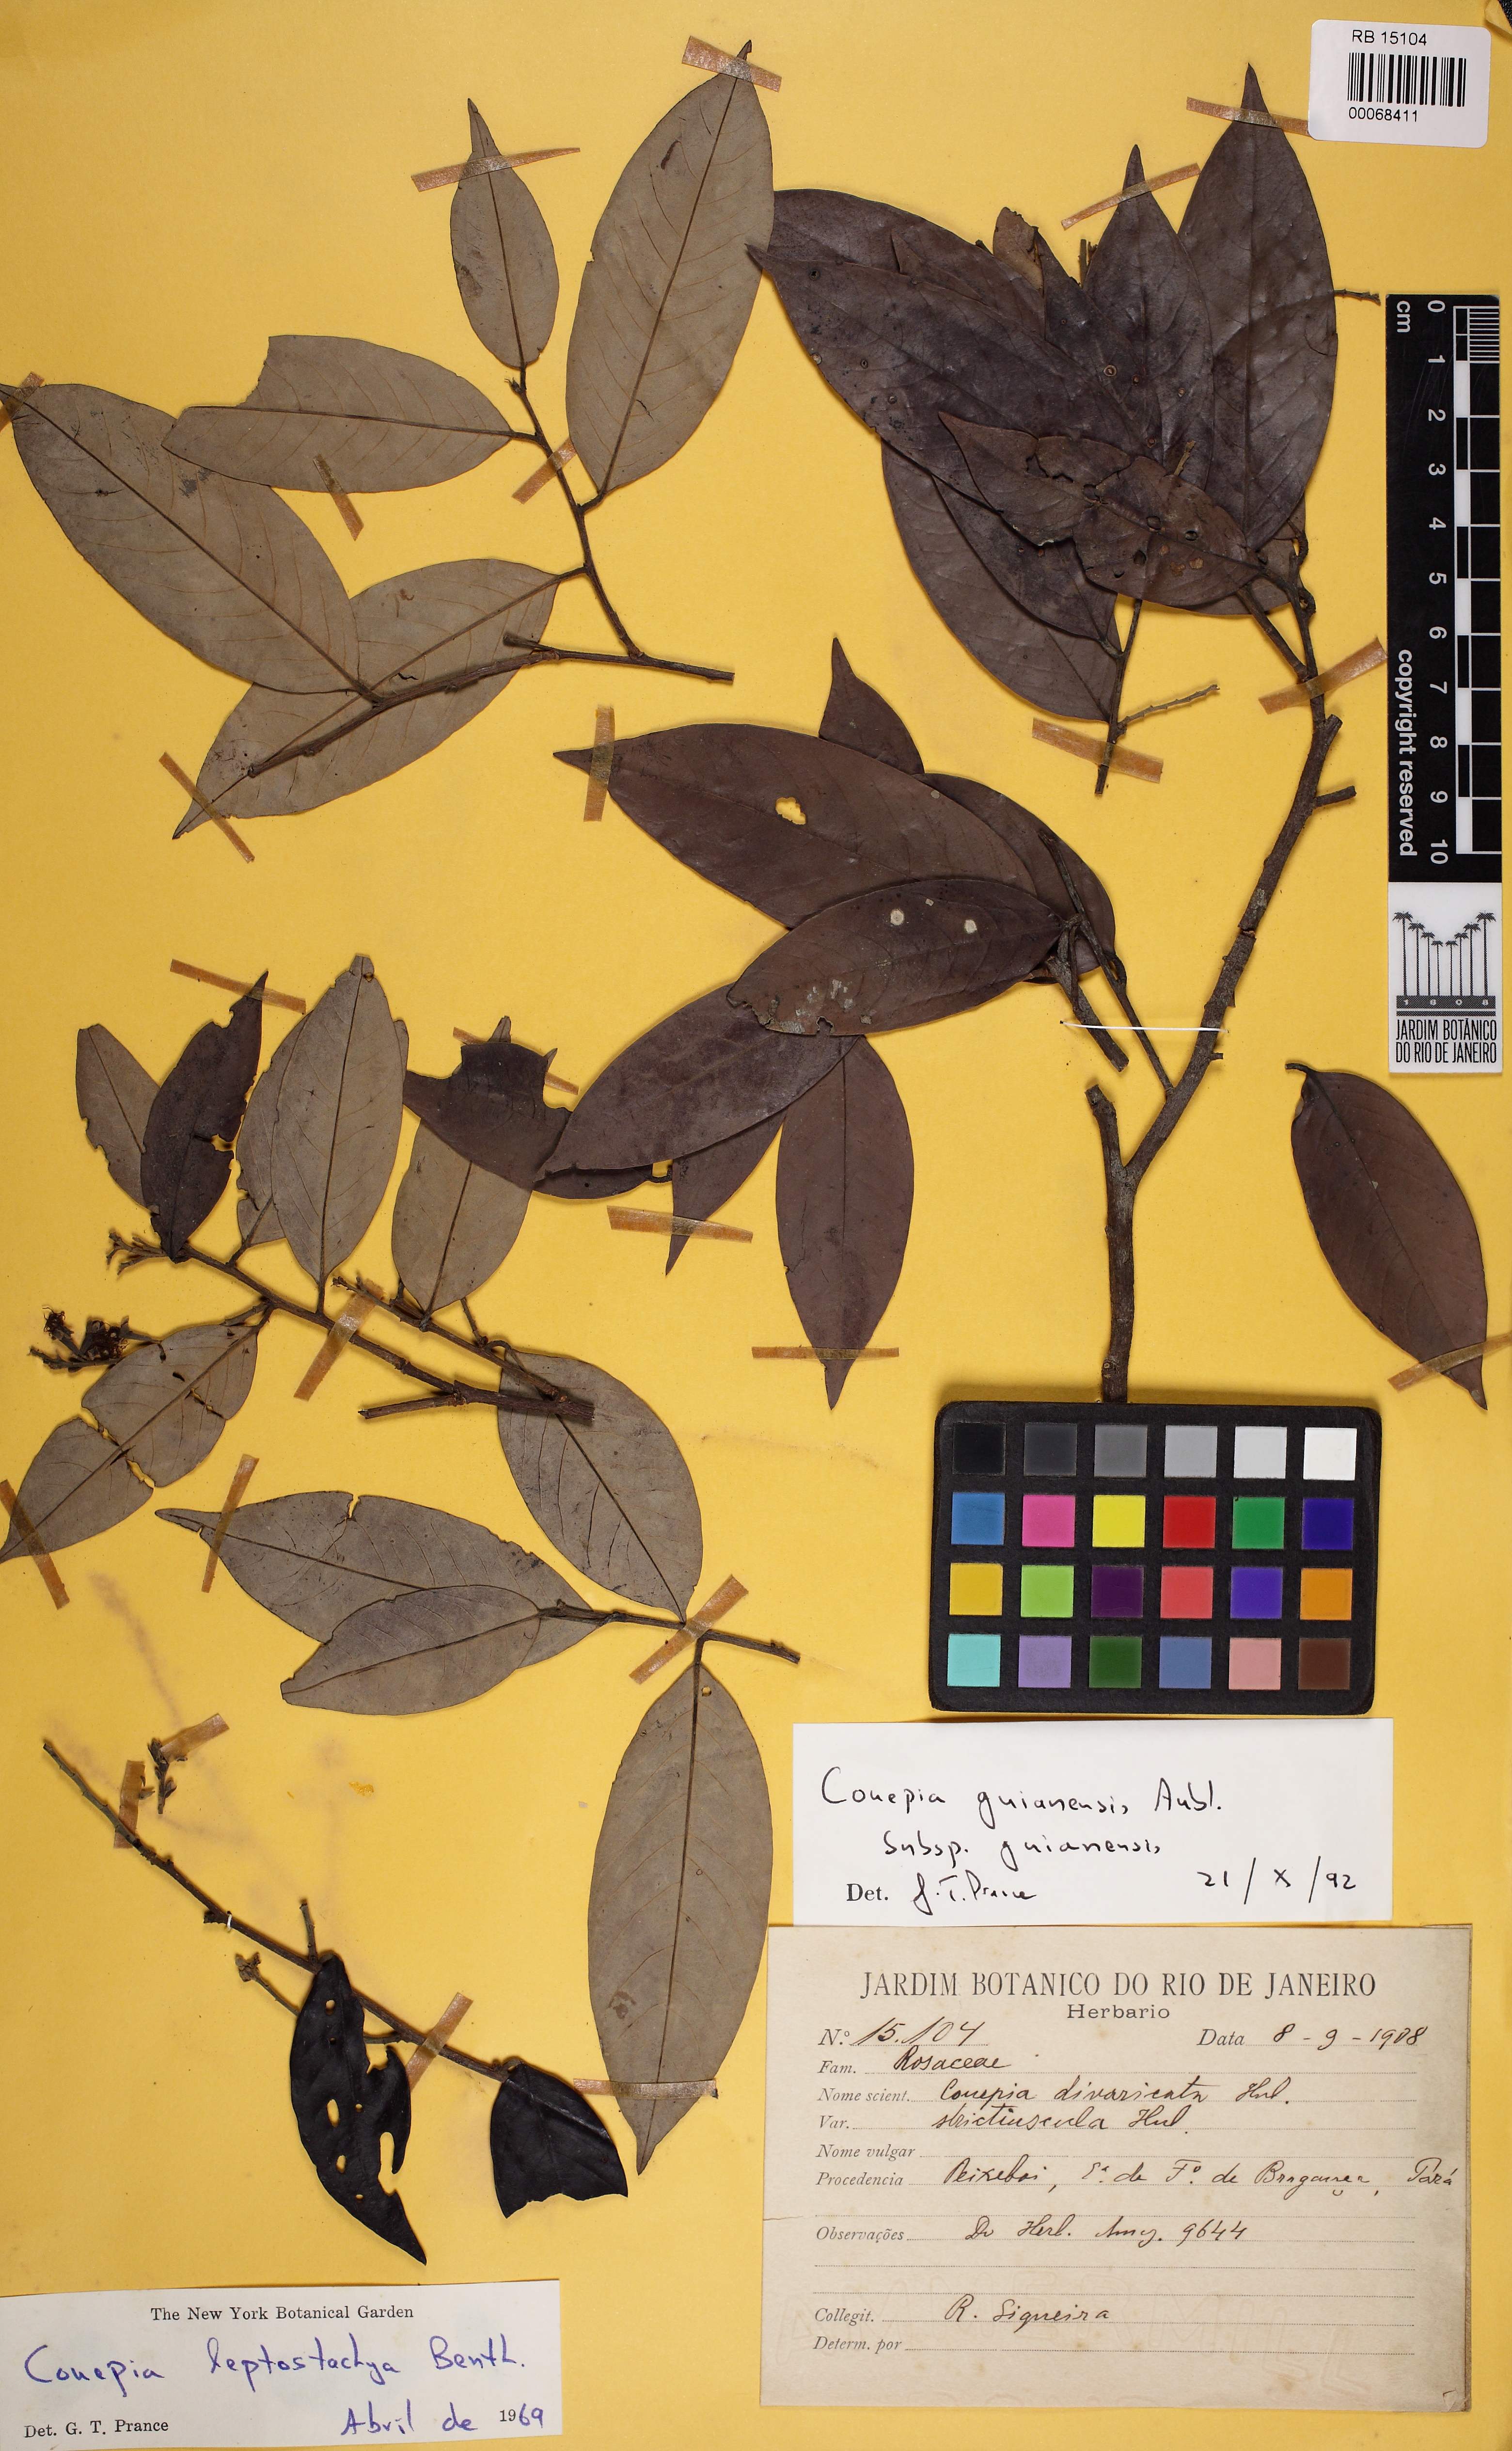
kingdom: Plantae
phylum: Tracheophyta
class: Magnoliopsida
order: Malpighiales
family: Chrysobalanaceae
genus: Couepia
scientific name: Couepia guianensis
